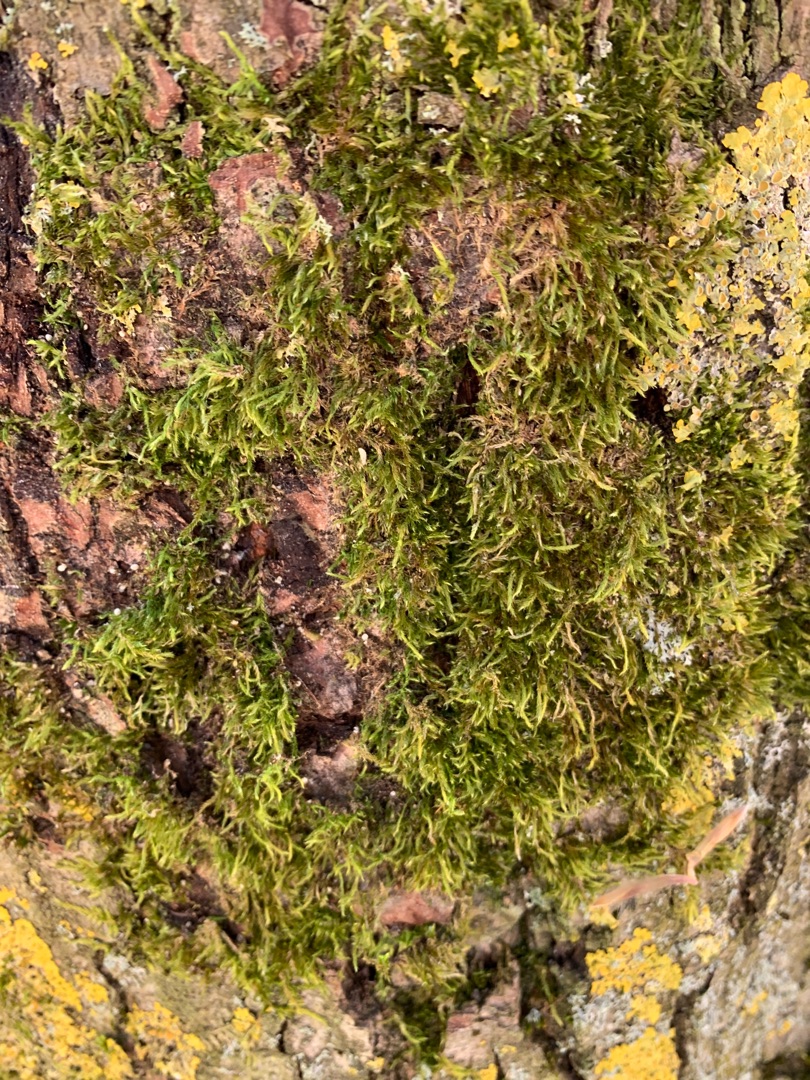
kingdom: Plantae
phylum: Bryophyta
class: Bryopsida
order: Hypnales
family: Hypnaceae
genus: Hypnum
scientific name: Hypnum
